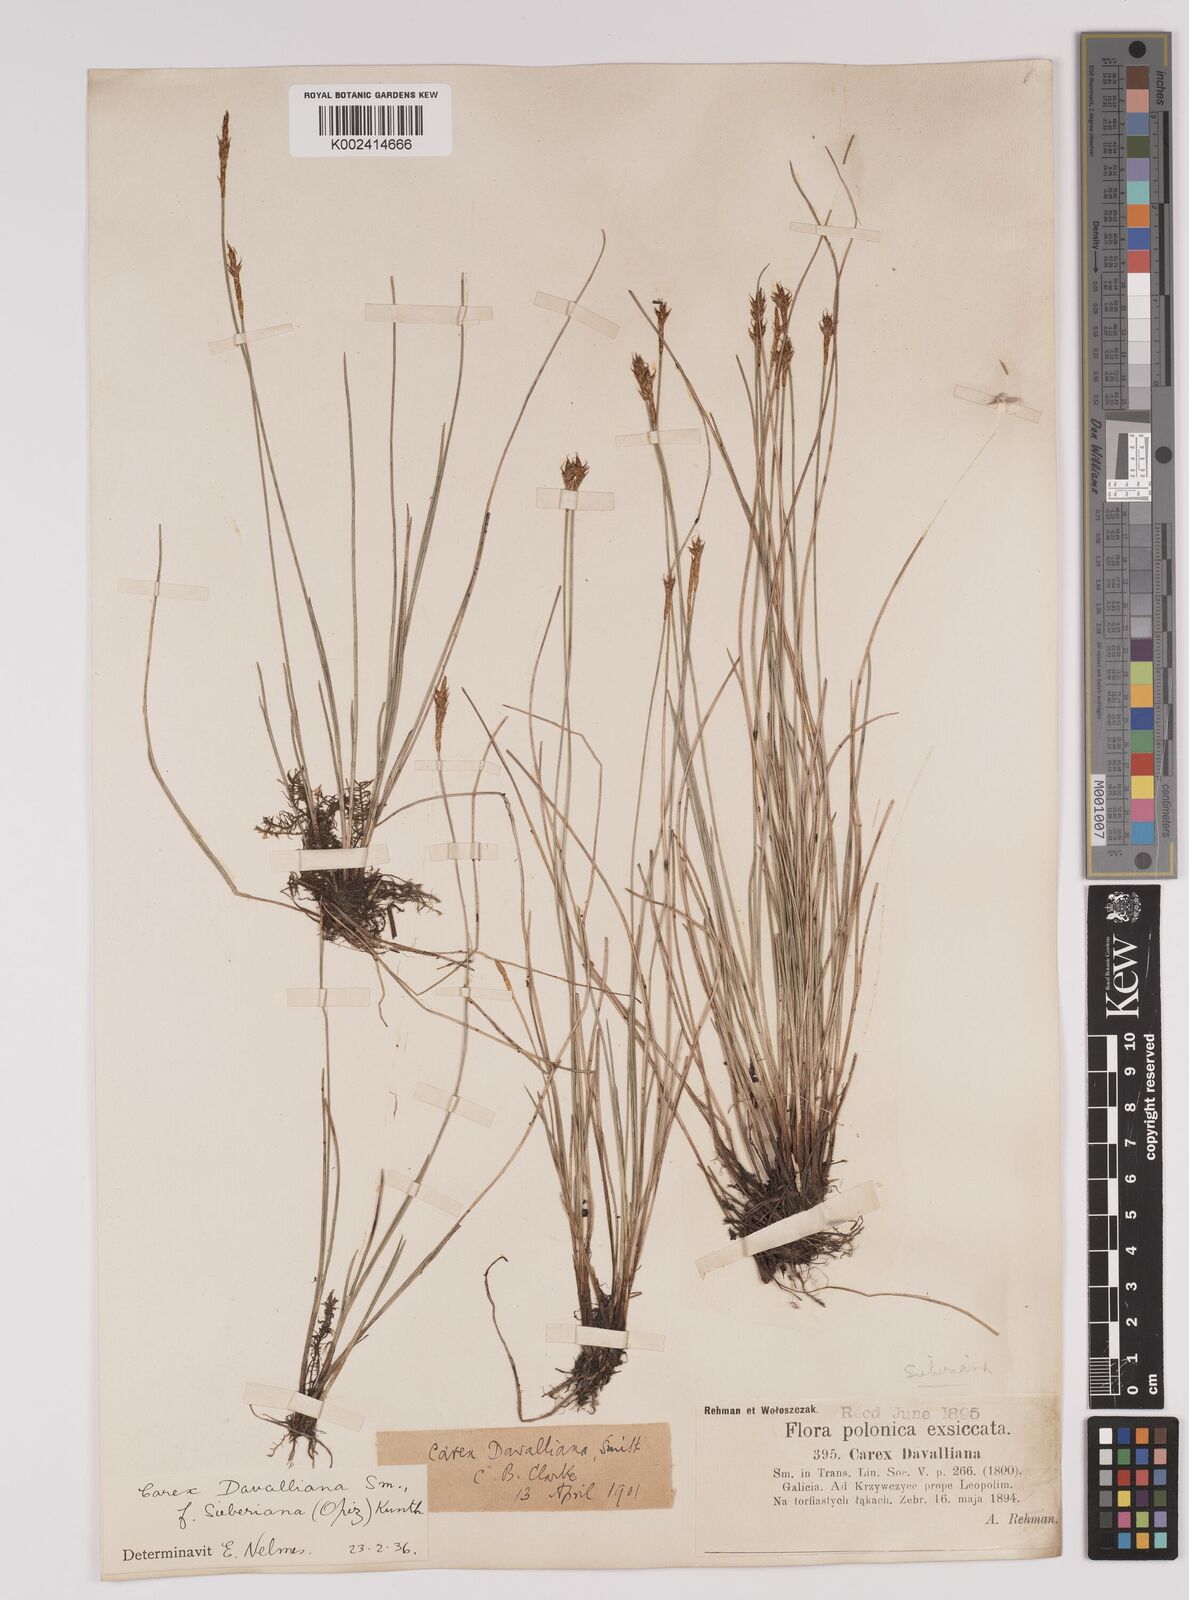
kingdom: Plantae
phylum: Tracheophyta
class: Liliopsida
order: Poales
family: Cyperaceae
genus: Carex
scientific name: Carex davalliana
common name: Davall's sedge
